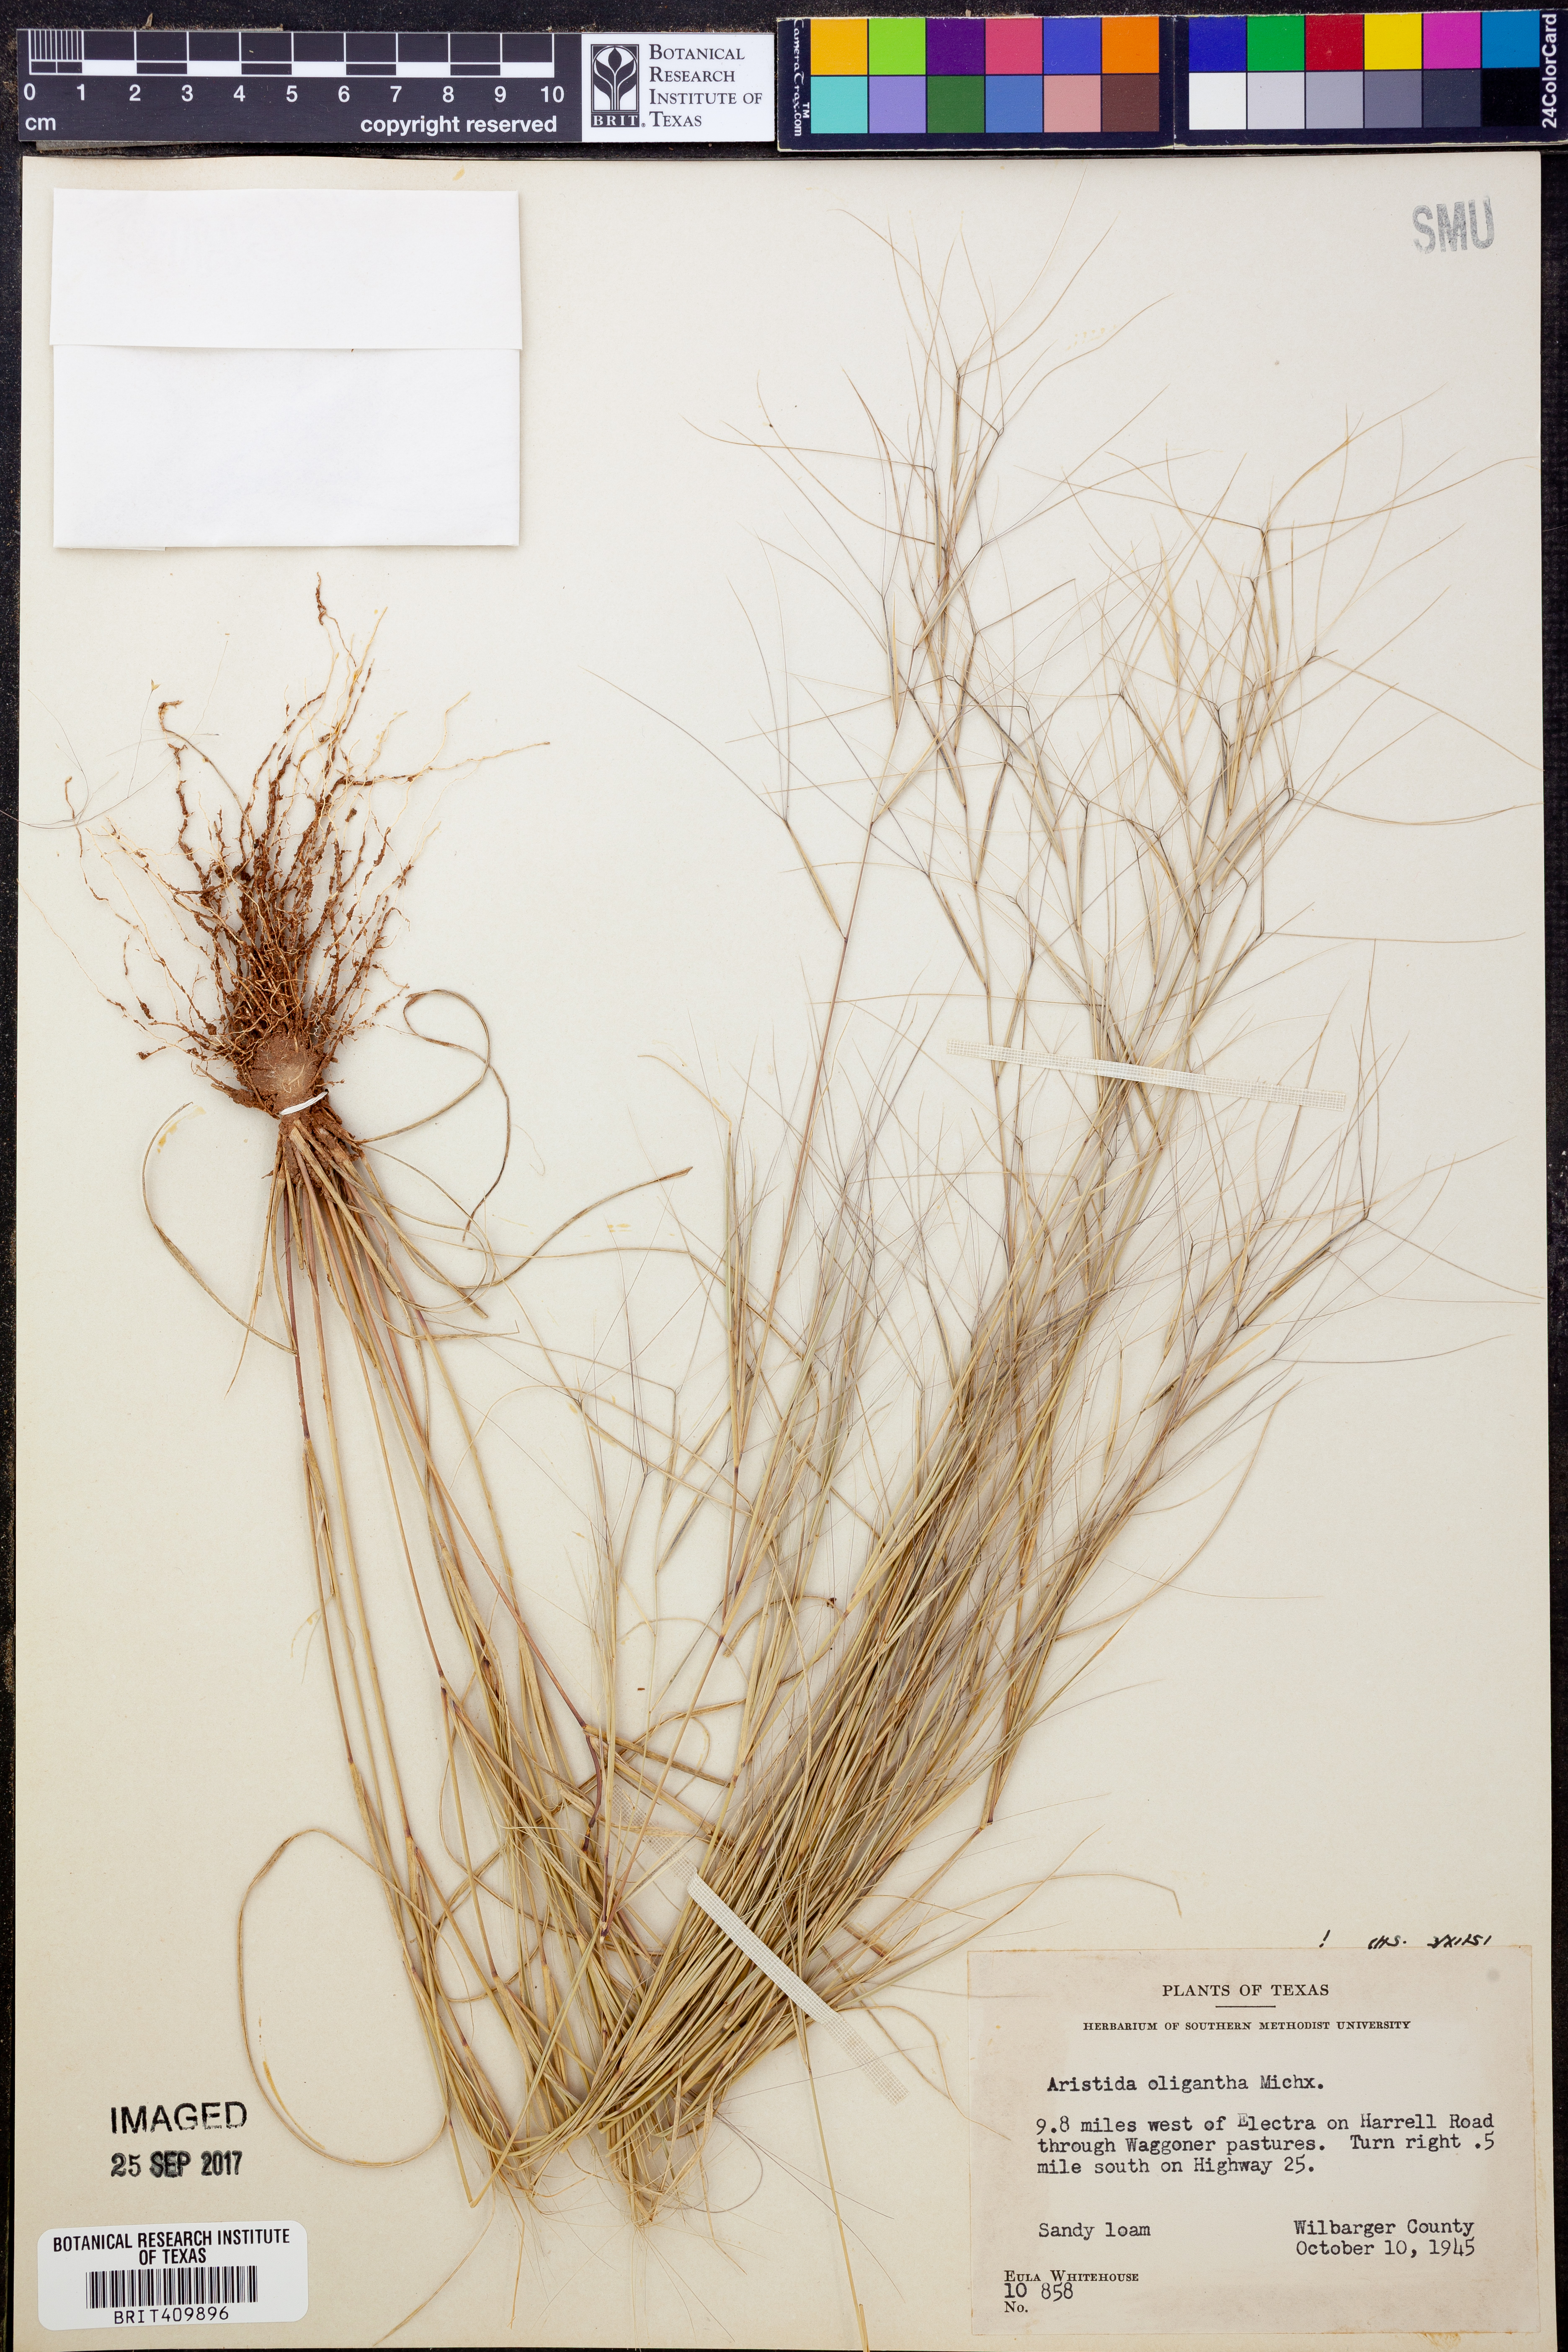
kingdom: Plantae
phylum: Tracheophyta
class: Liliopsida
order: Poales
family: Poaceae
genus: Aristida
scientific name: Aristida oligantha
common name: Few-flowered aristida
